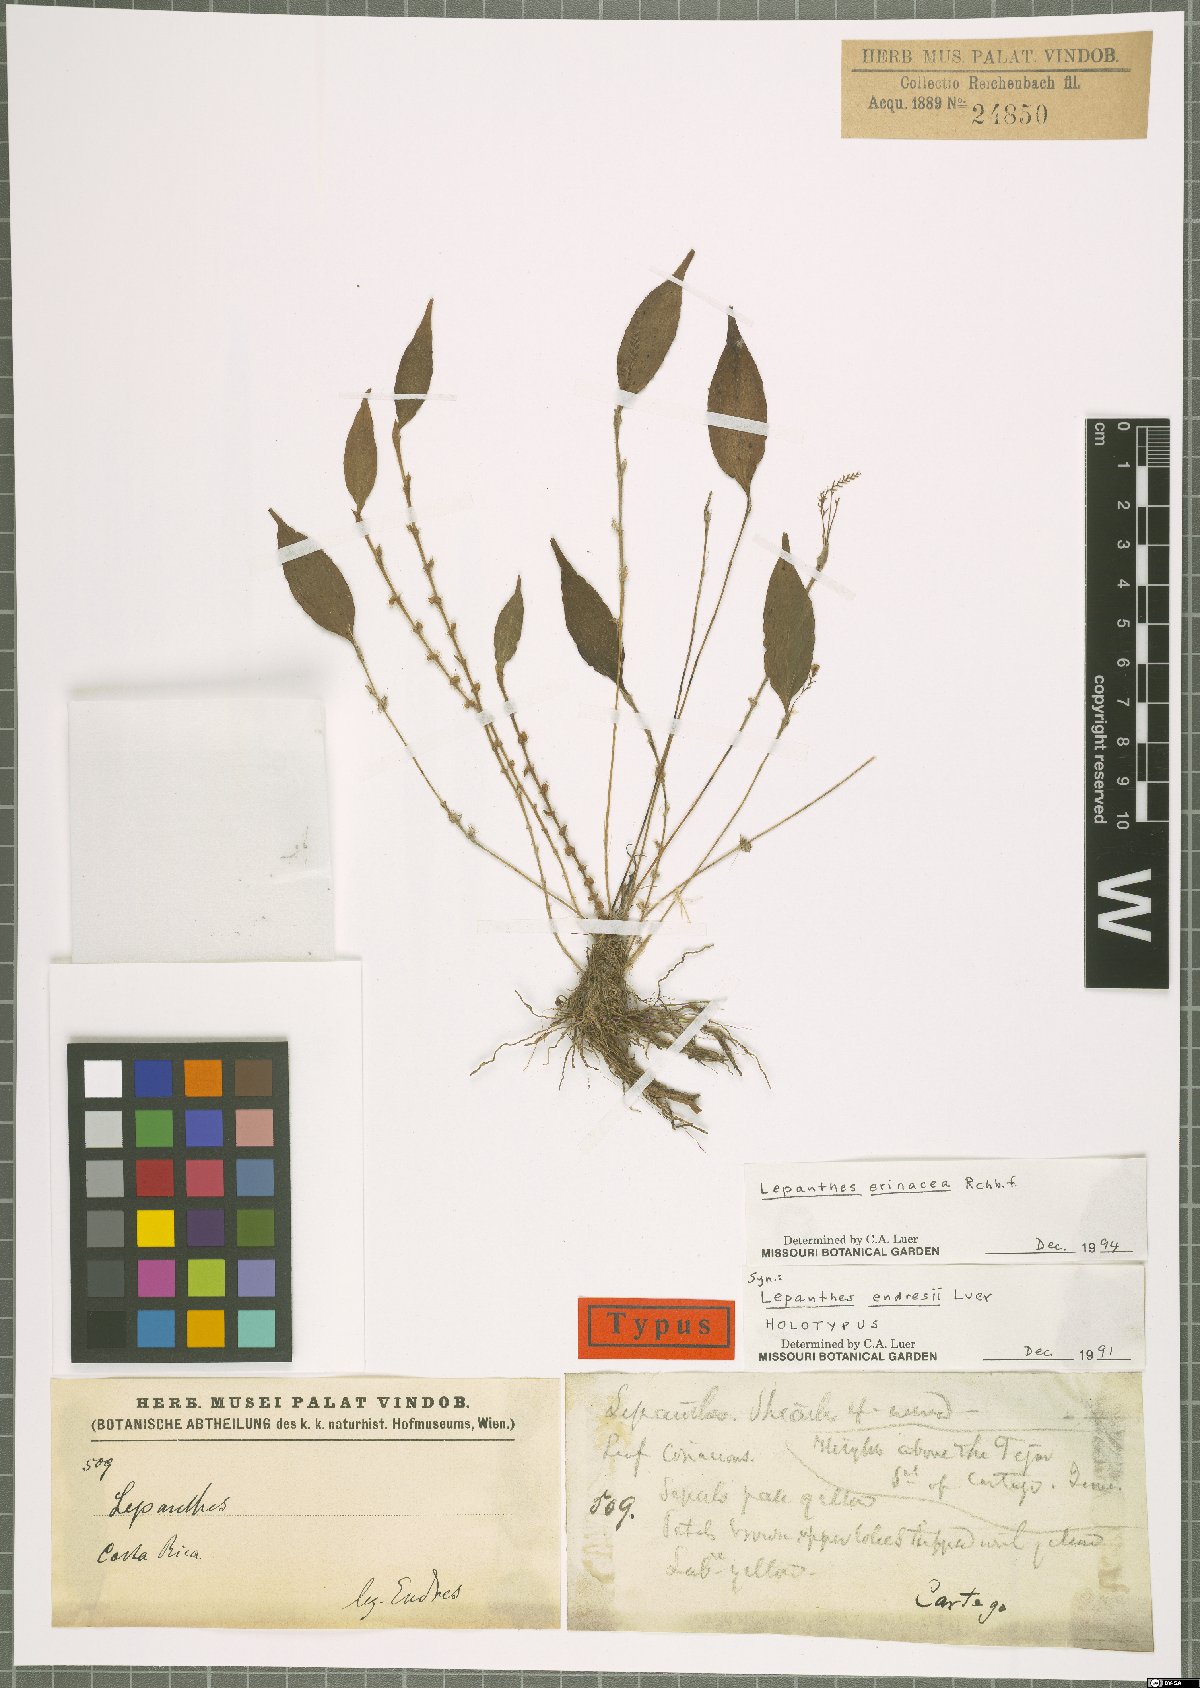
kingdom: Plantae
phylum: Tracheophyta
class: Liliopsida
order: Asparagales
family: Orchidaceae
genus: Lepanthes
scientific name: Lepanthes erinacea
